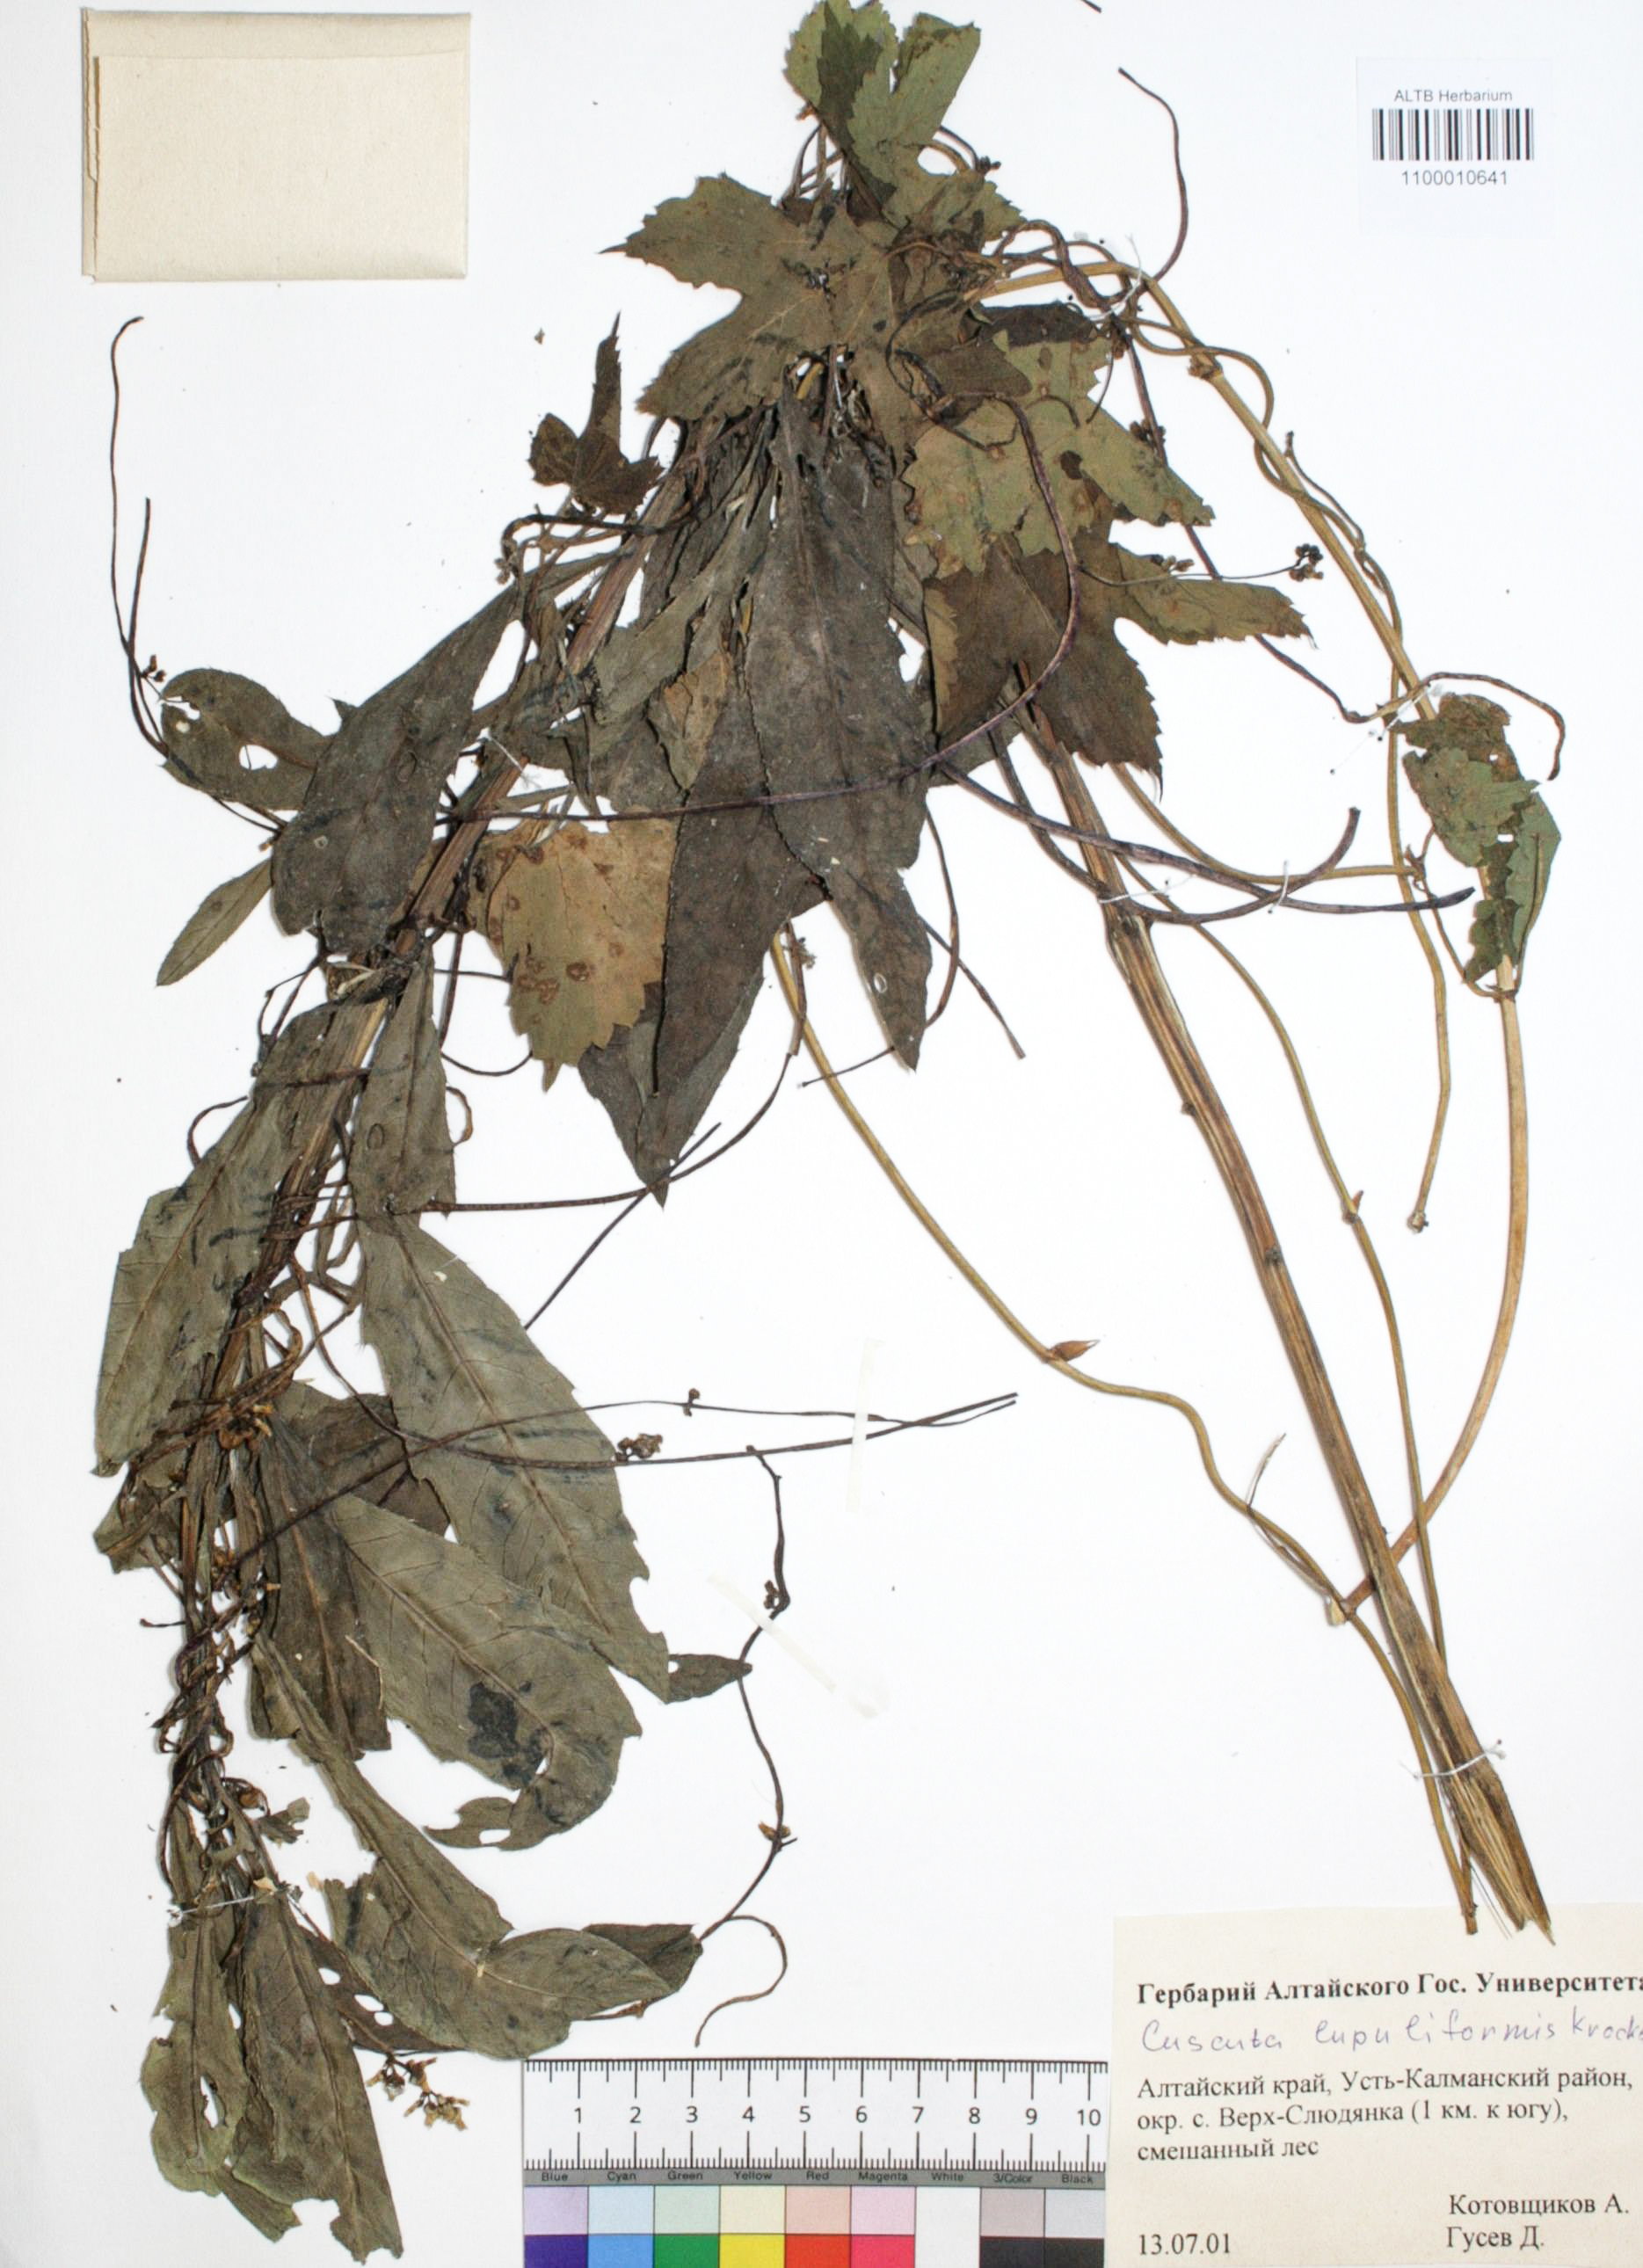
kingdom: Plantae
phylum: Tracheophyta
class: Magnoliopsida
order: Solanales
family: Convolvulaceae
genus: Cuscuta
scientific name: Cuscuta lupuliformis
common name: Hop dodder
